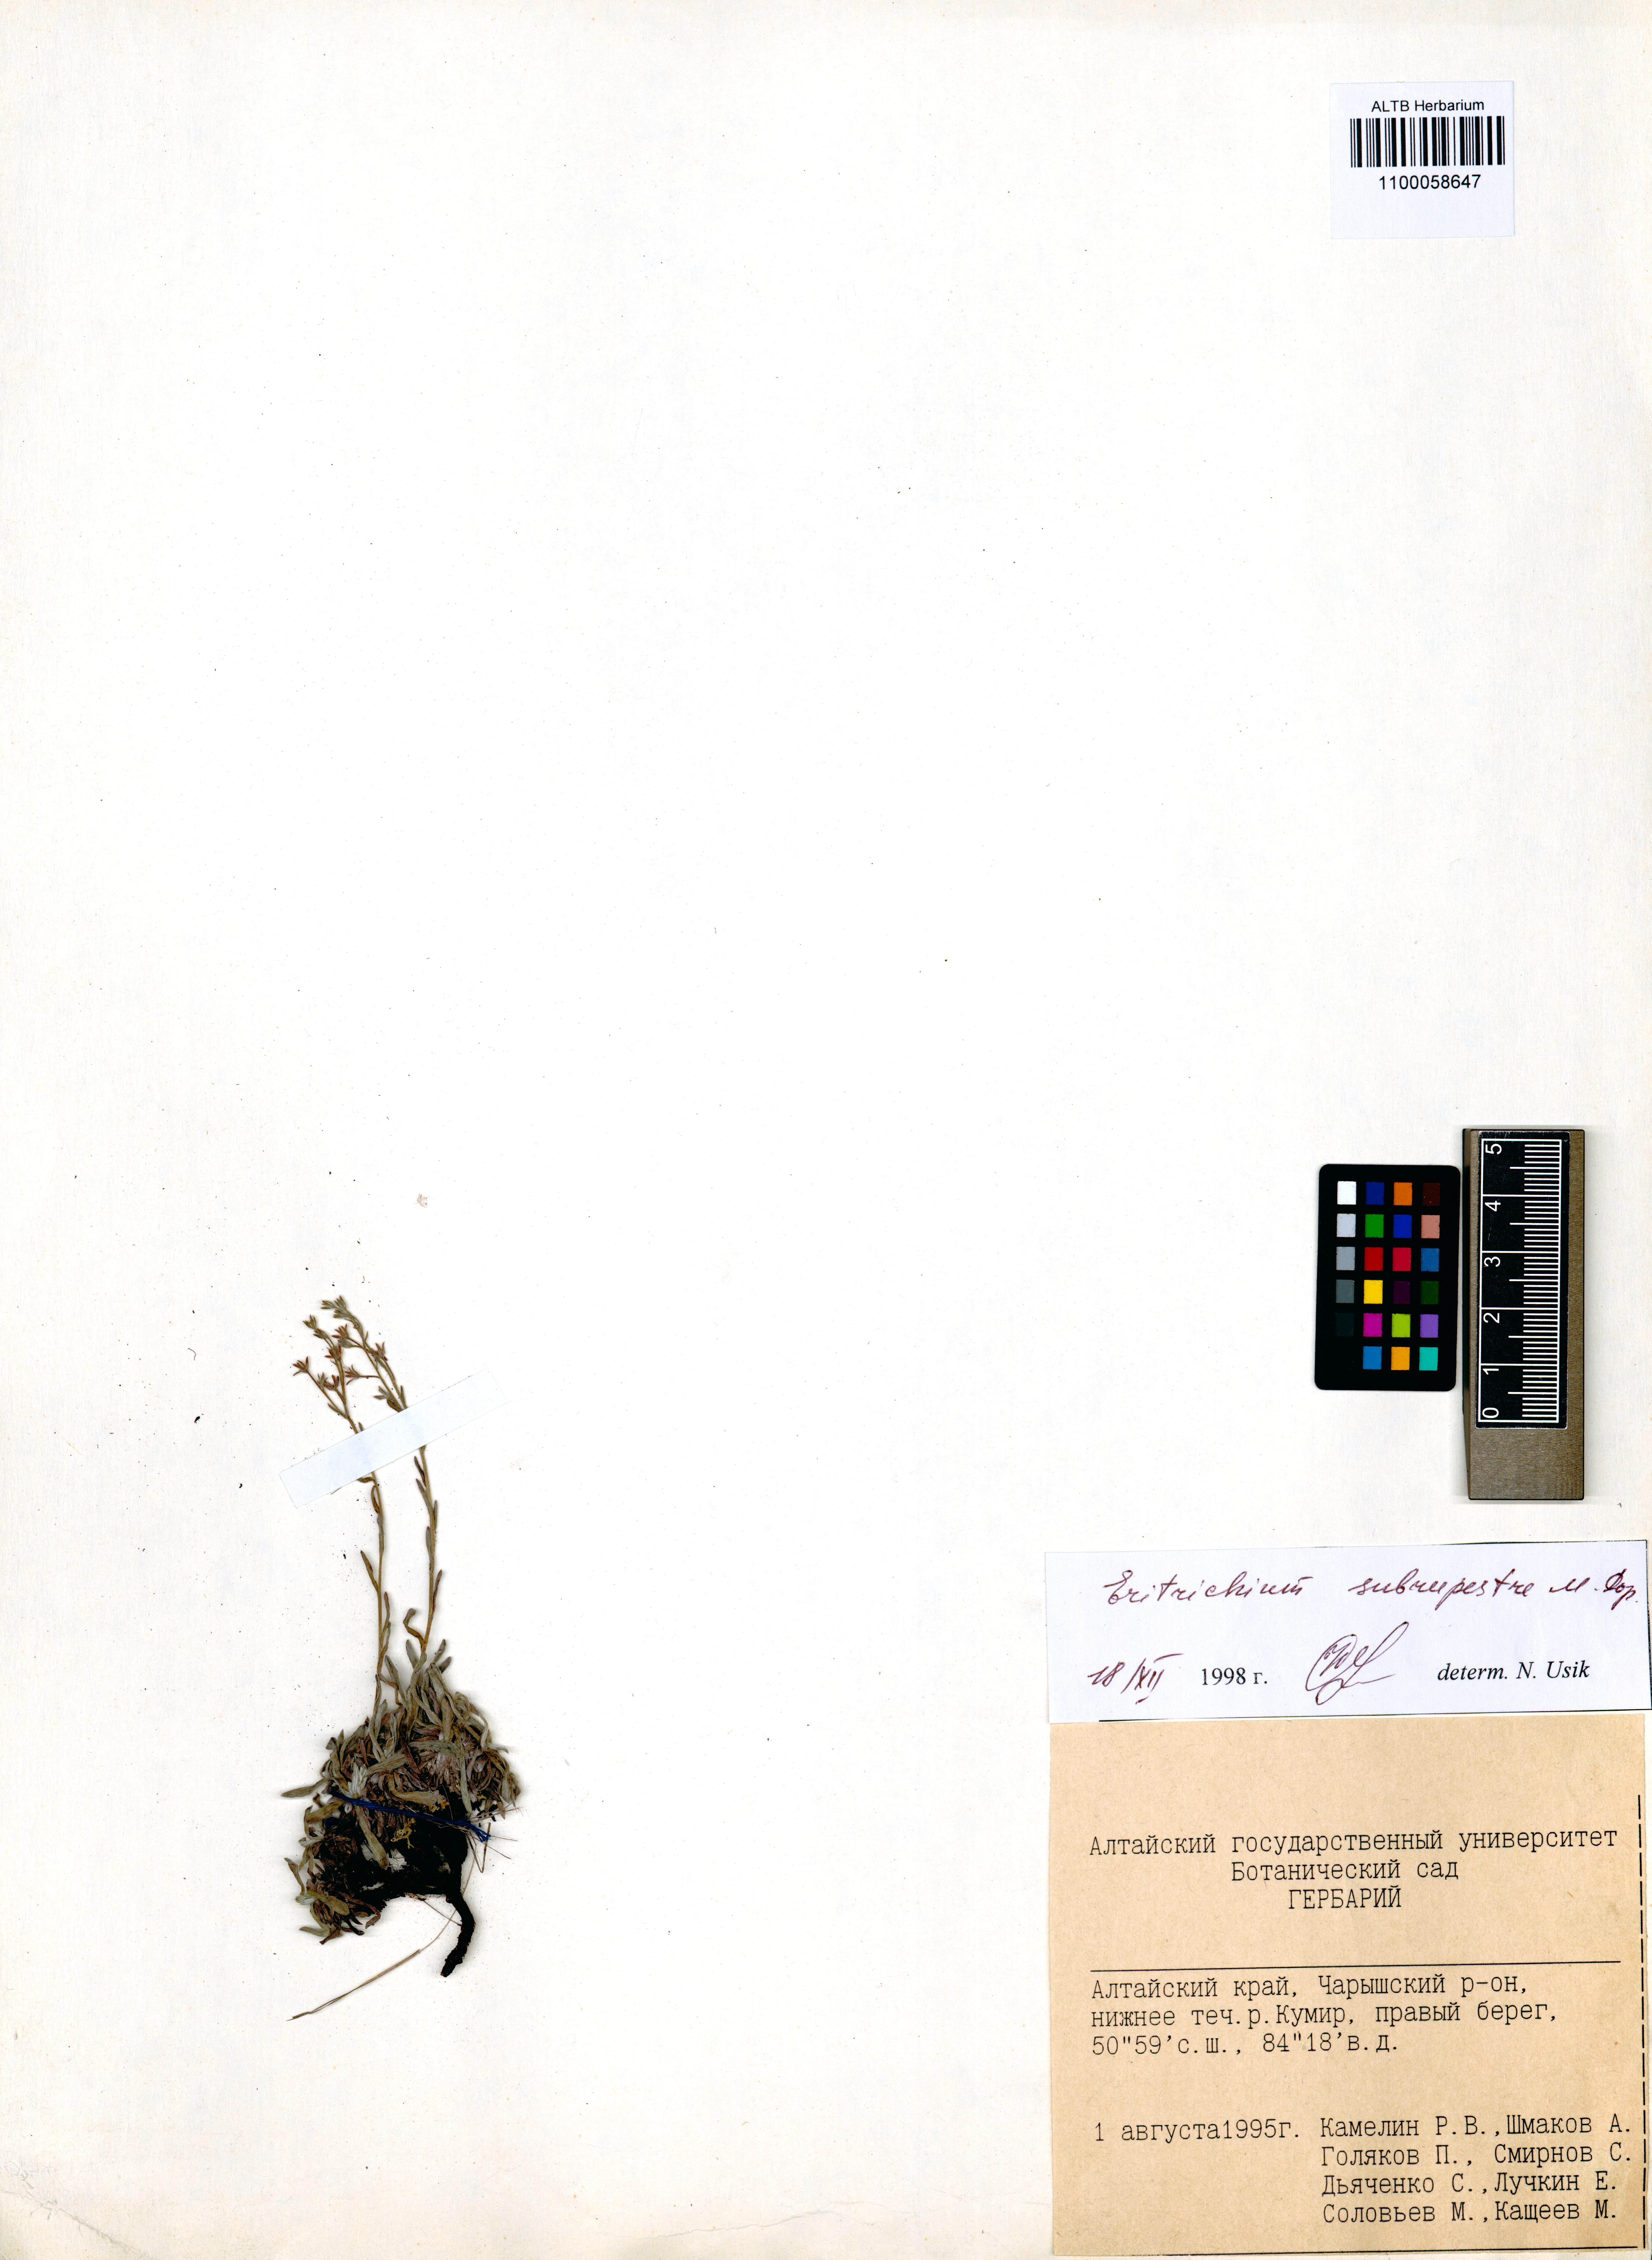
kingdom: Plantae
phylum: Tracheophyta
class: Magnoliopsida
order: Boraginales
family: Boraginaceae
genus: Eritrichium
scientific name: Eritrichium pauciflorum
